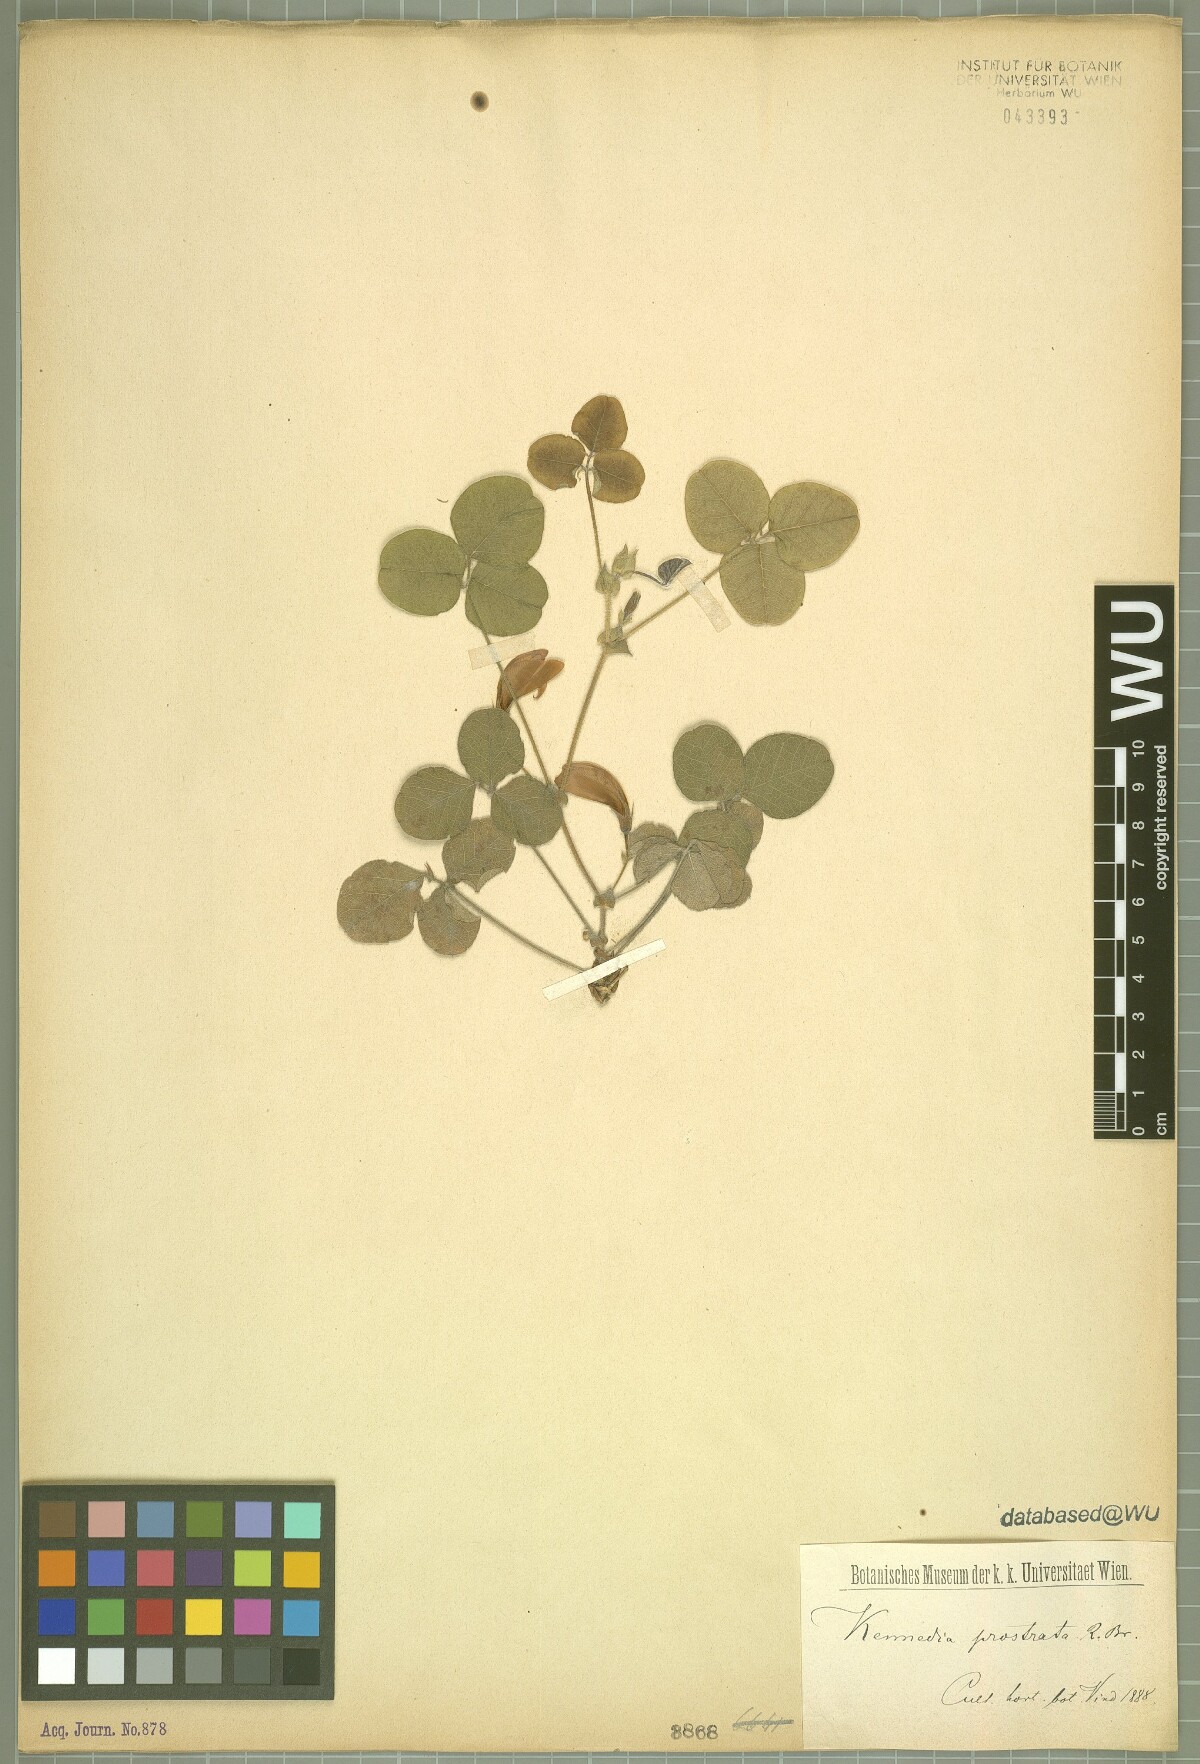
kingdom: Plantae
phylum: Tracheophyta
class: Magnoliopsida
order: Fabales
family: Fabaceae
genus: Kennedia
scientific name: Kennedia prostrata
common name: Running-postman
